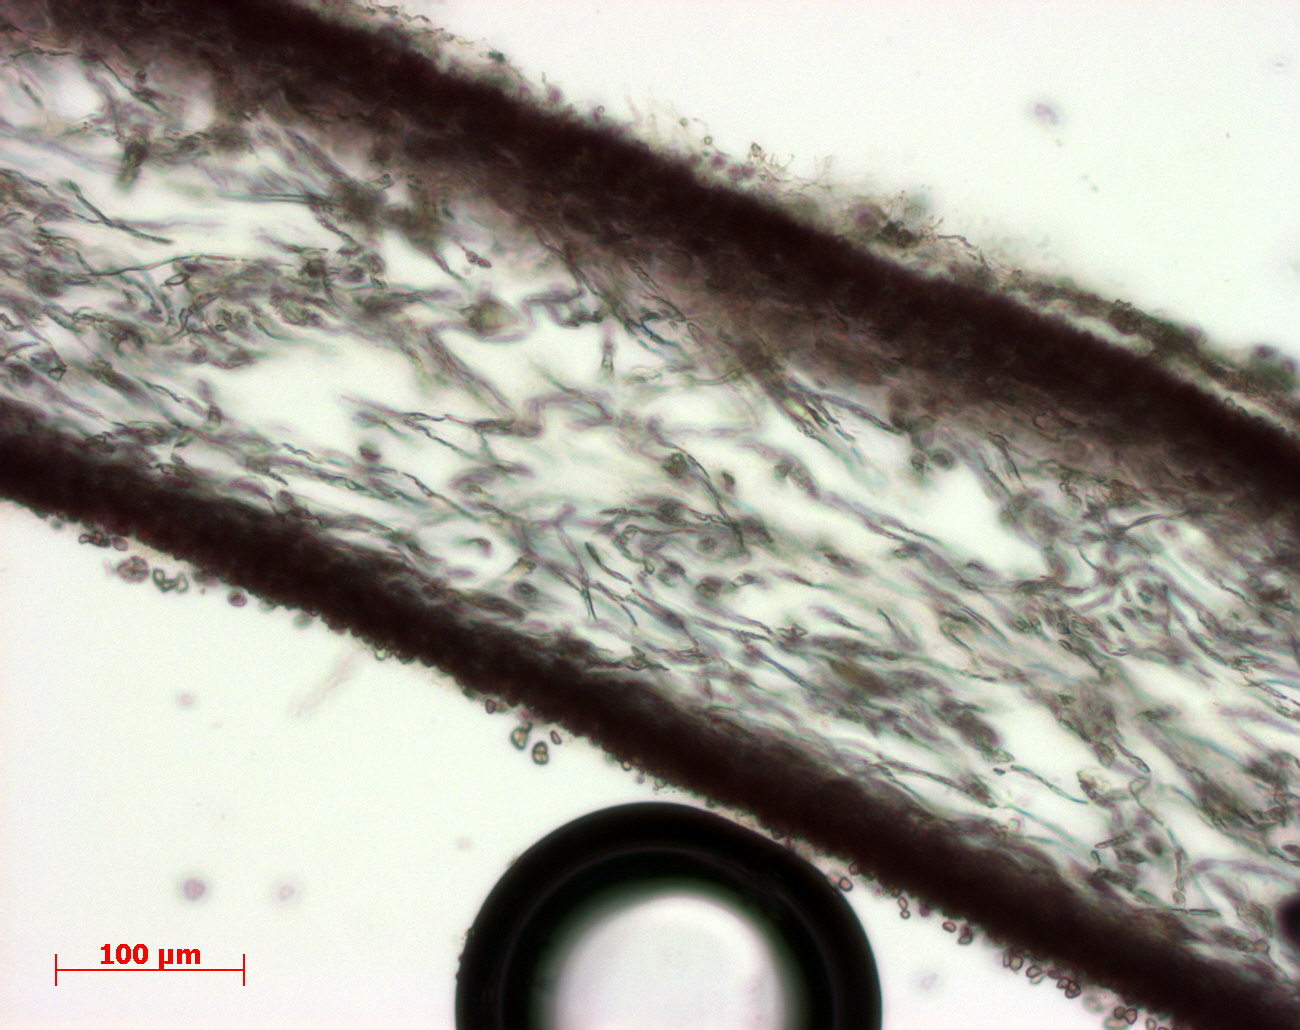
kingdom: Plantae
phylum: Rhodophyta
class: Florideophyceae
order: Halymeniales
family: Halymeniaceae
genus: Halymenia
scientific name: Halymenia
